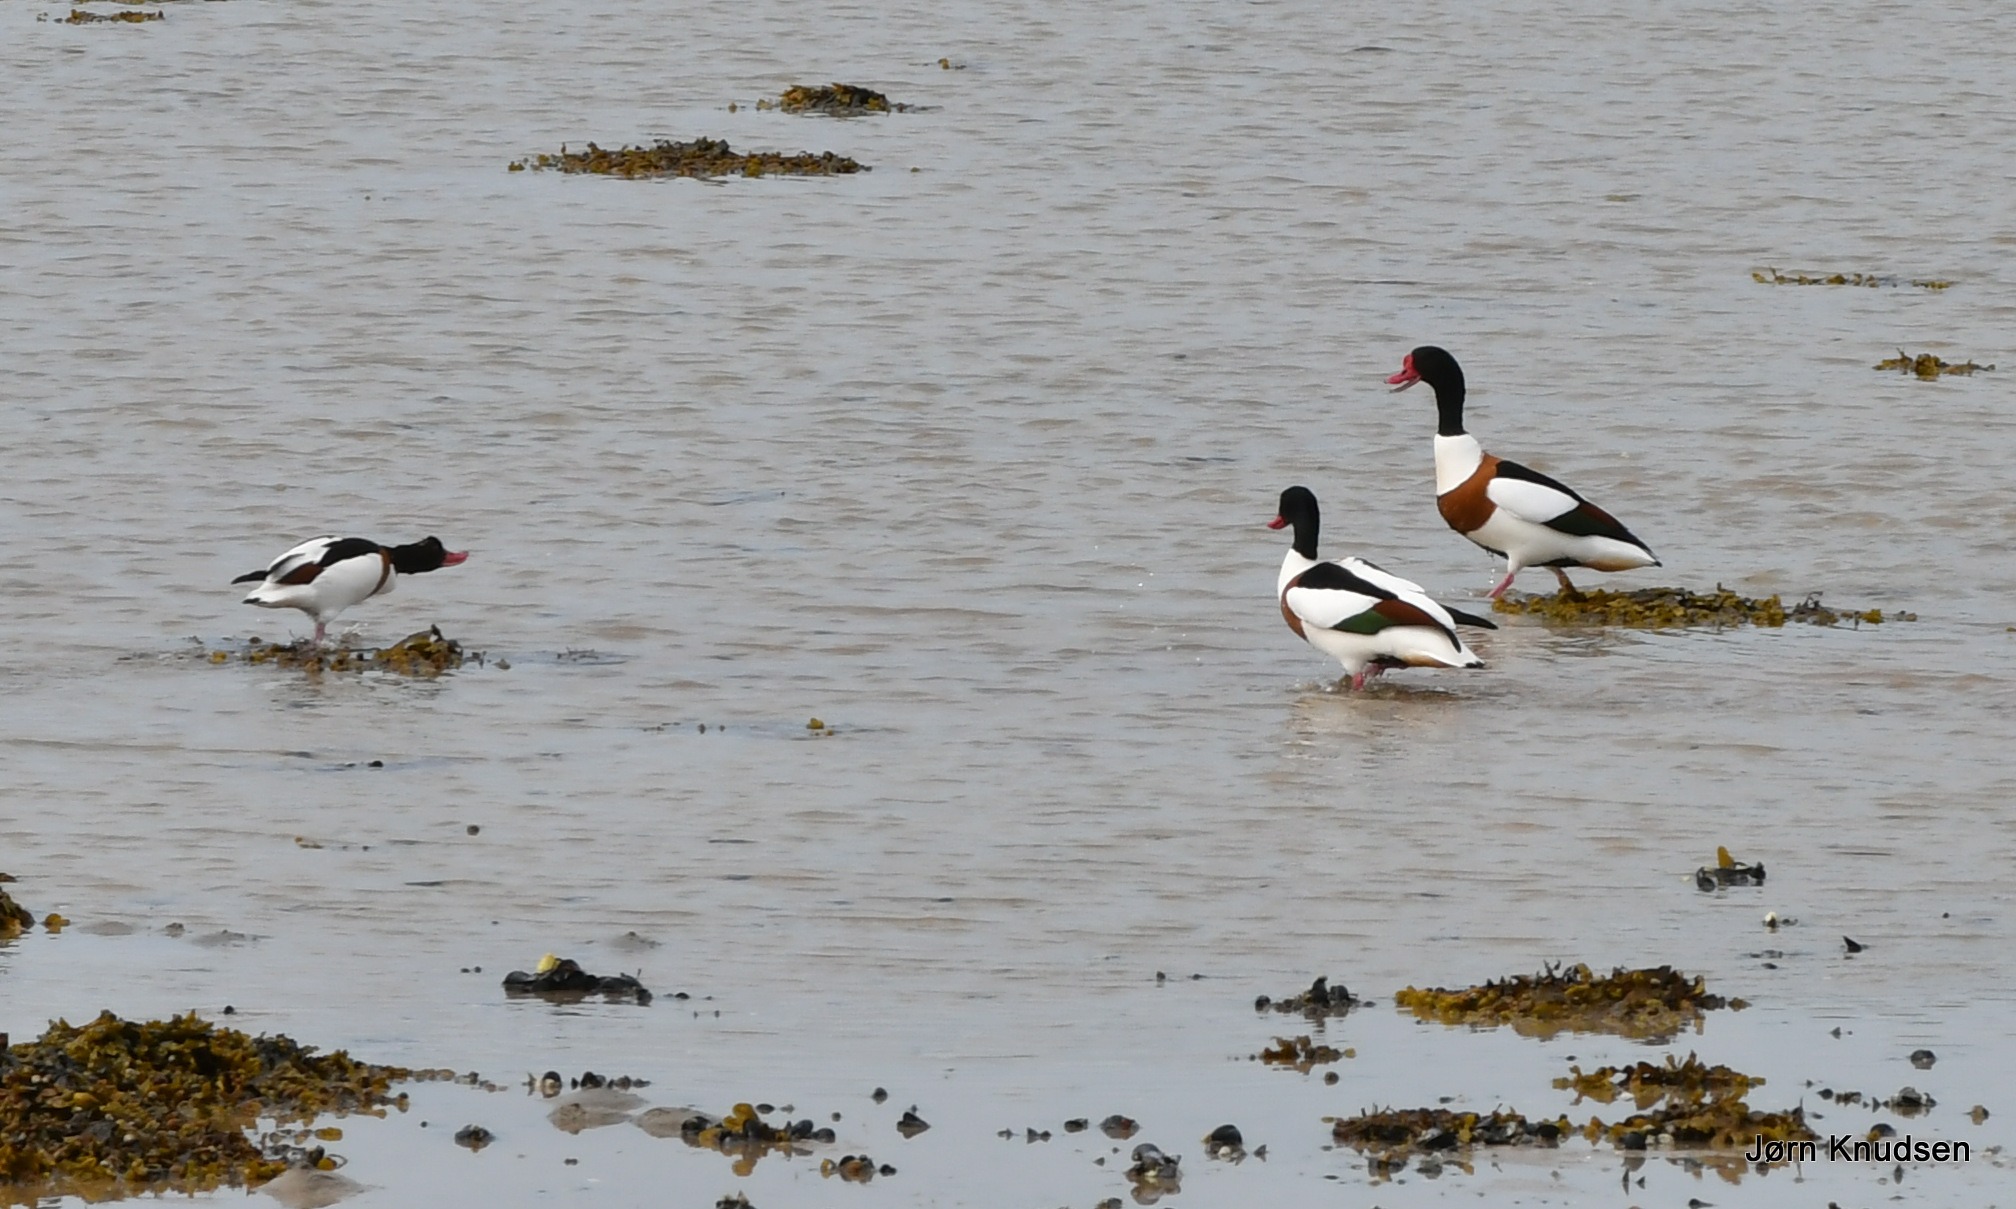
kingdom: Animalia
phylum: Chordata
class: Aves
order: Anseriformes
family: Anatidae
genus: Tadorna
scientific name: Tadorna tadorna
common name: Gravand
